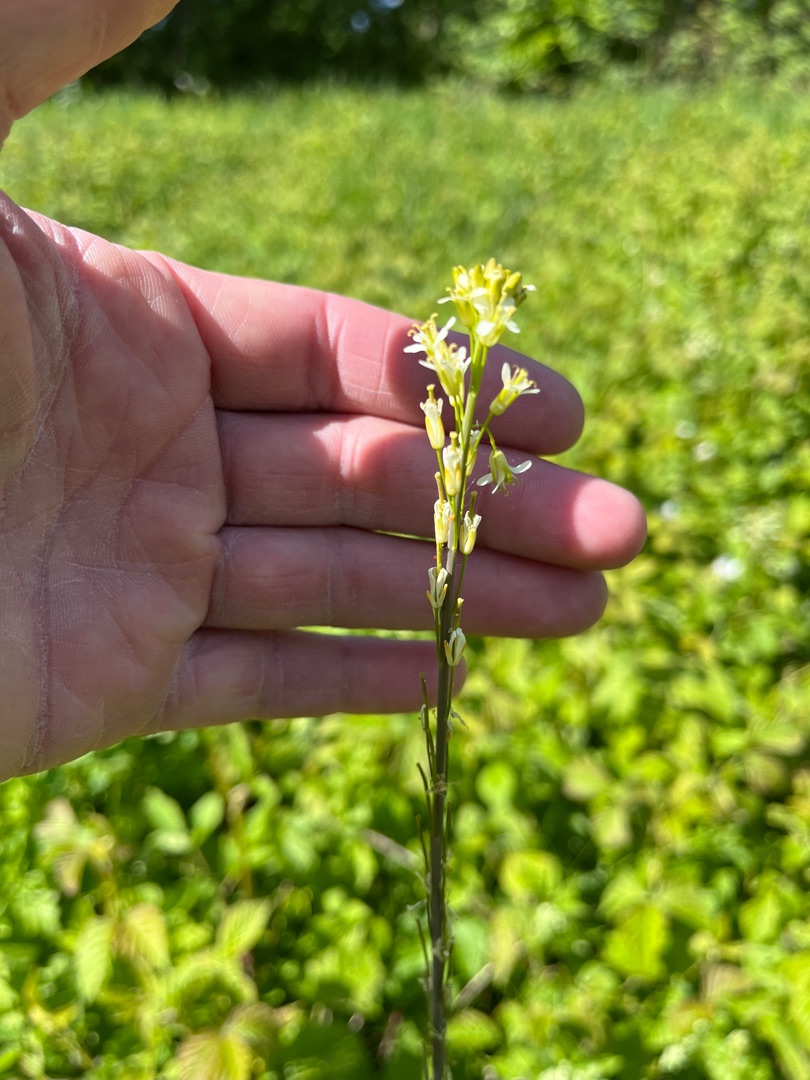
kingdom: Plantae
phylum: Tracheophyta
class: Magnoliopsida
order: Brassicales
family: Brassicaceae
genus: Turritis
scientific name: Turritis glabra
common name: Tårnurt
